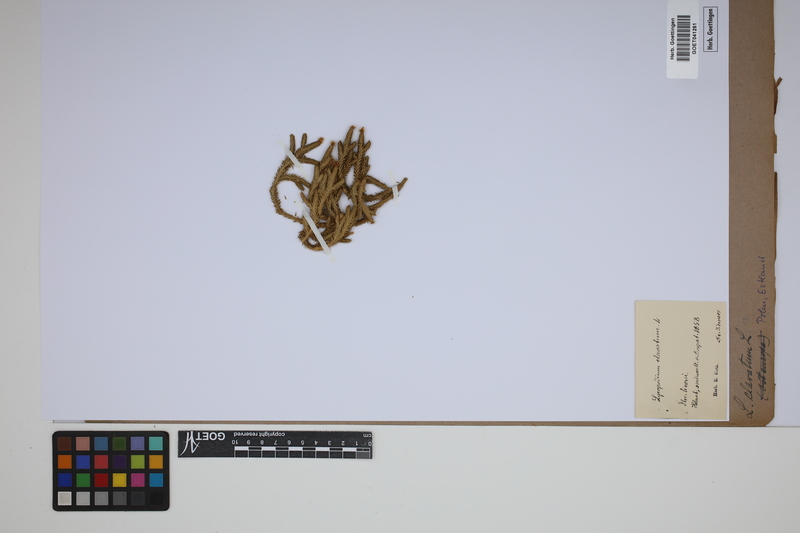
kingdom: Plantae
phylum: Tracheophyta
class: Lycopodiopsida
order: Lycopodiales
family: Lycopodiaceae
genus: Lycopodium
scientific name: Lycopodium clavatum
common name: Stag's-horn clubmoss
